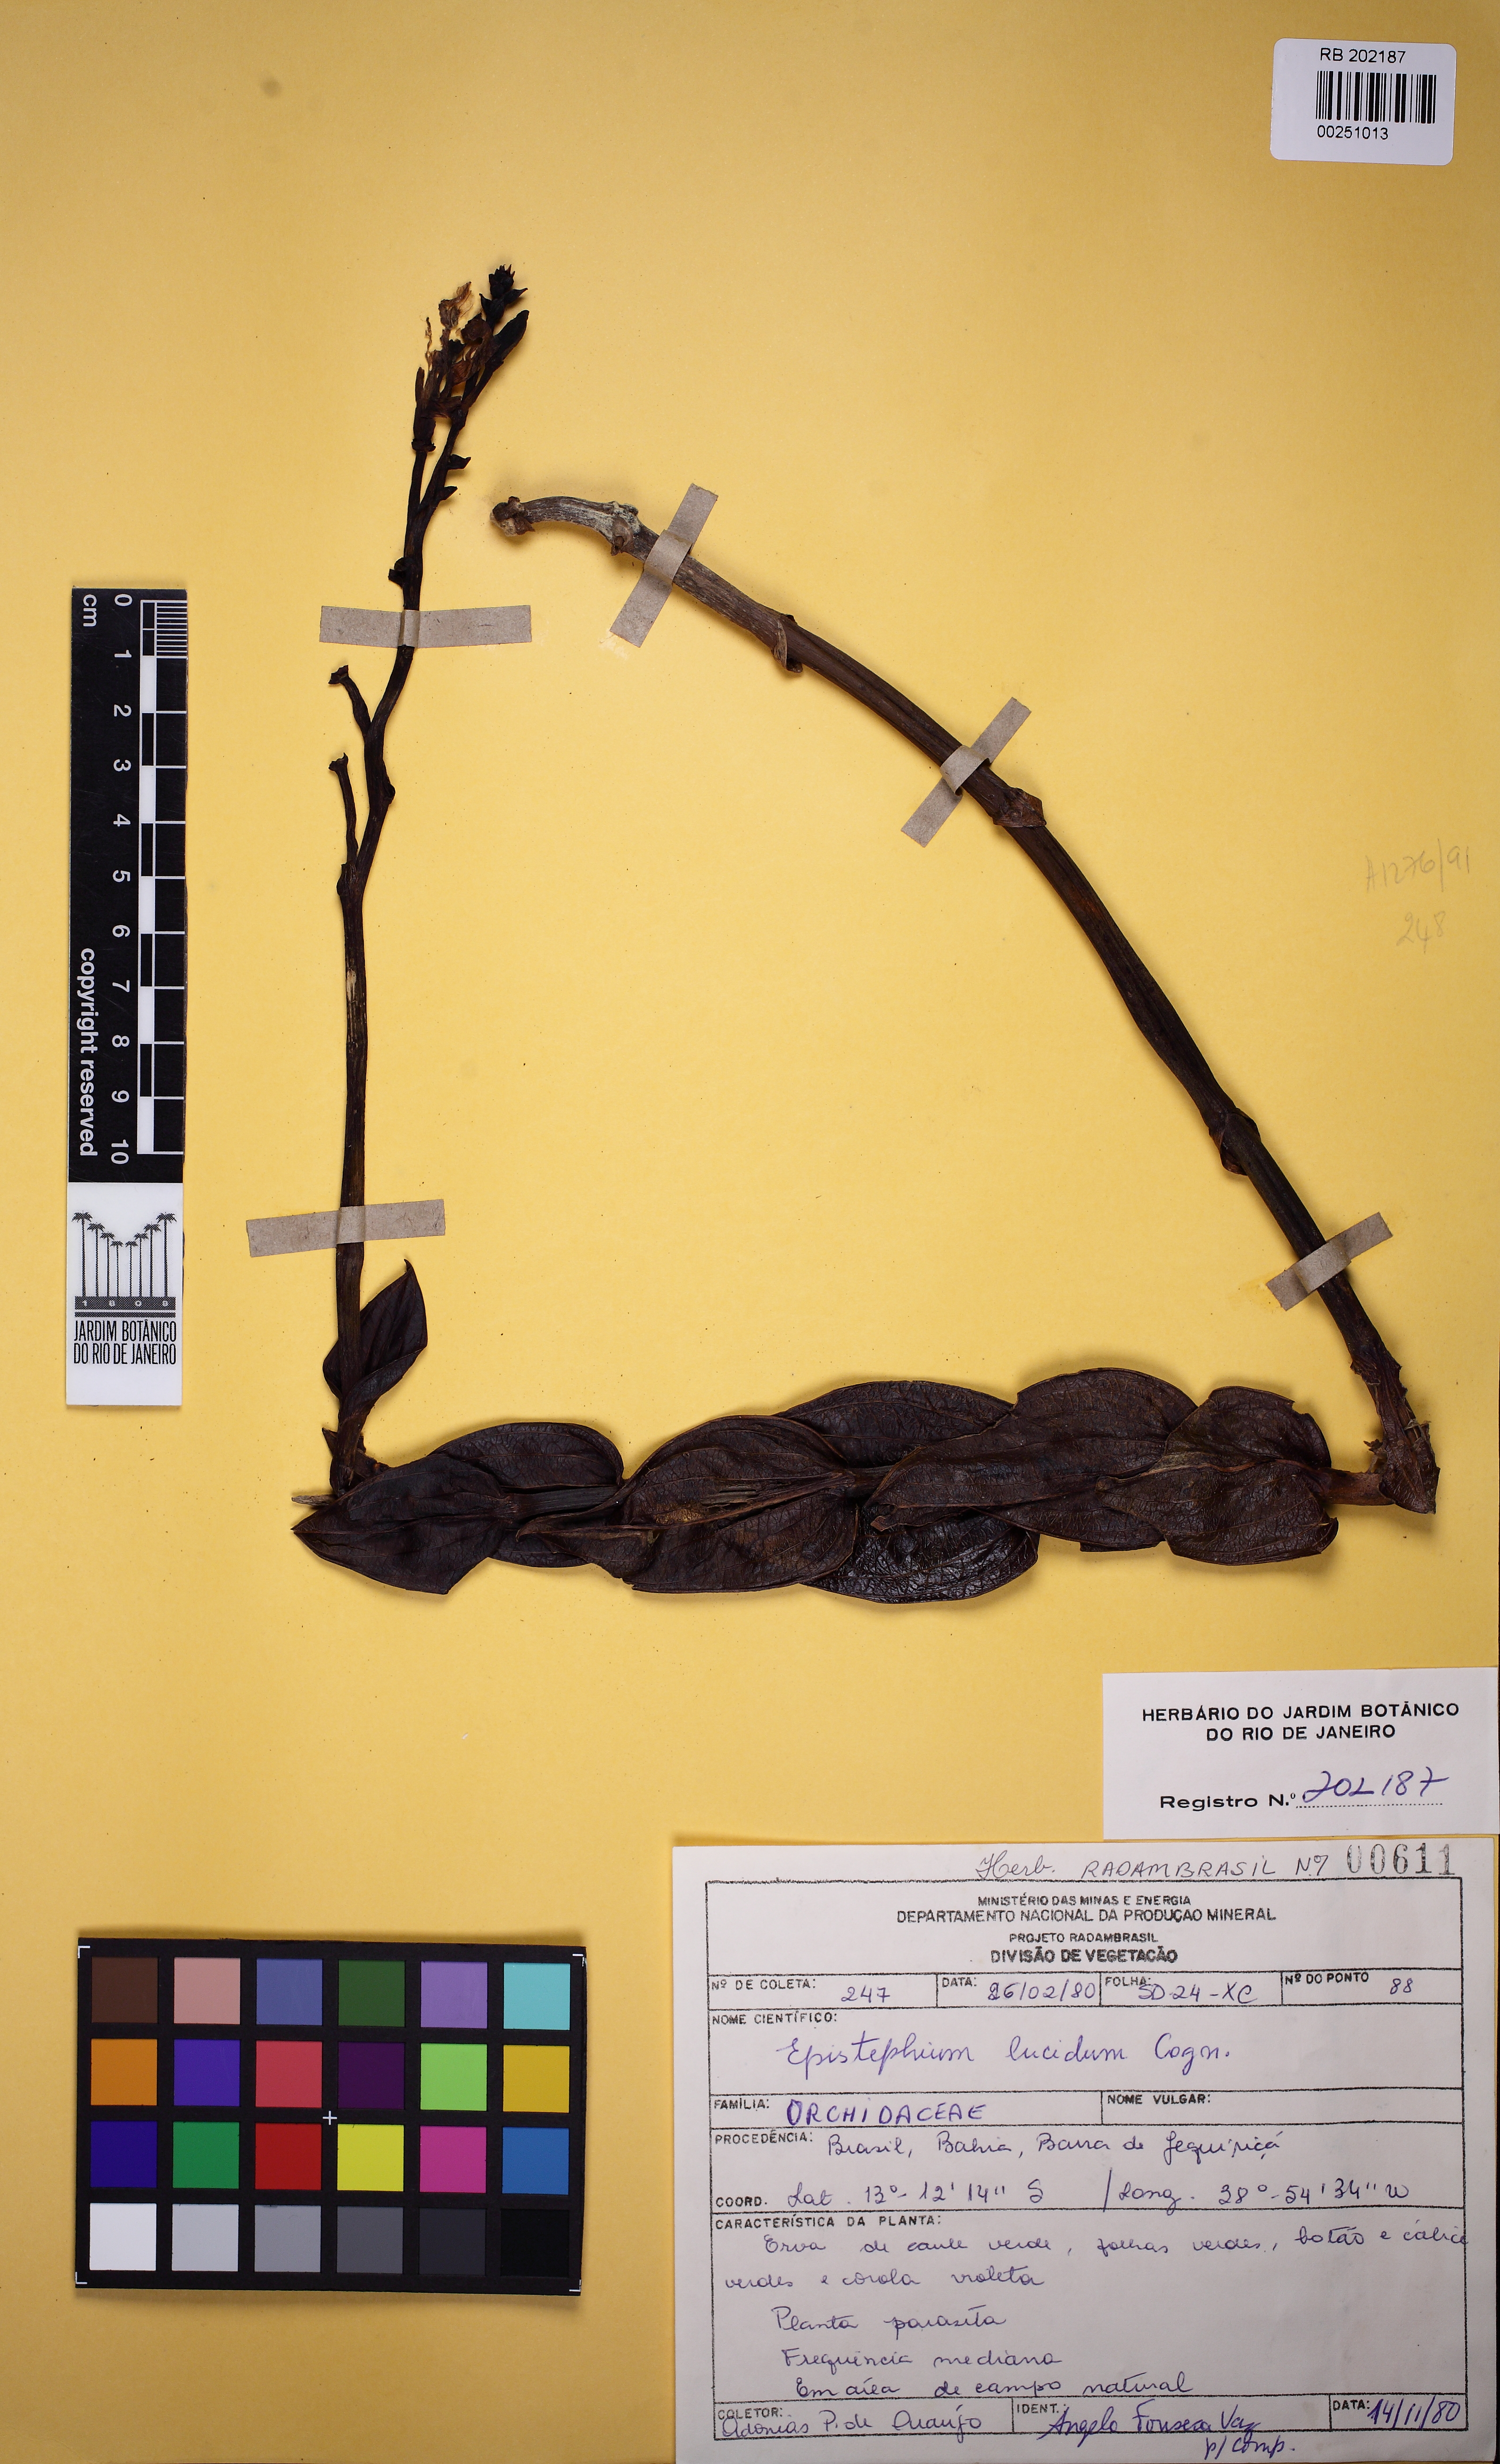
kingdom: Plantae
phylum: Tracheophyta
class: Liliopsida
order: Asparagales
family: Orchidaceae
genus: Epistephium
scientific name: Epistephium williamsii
